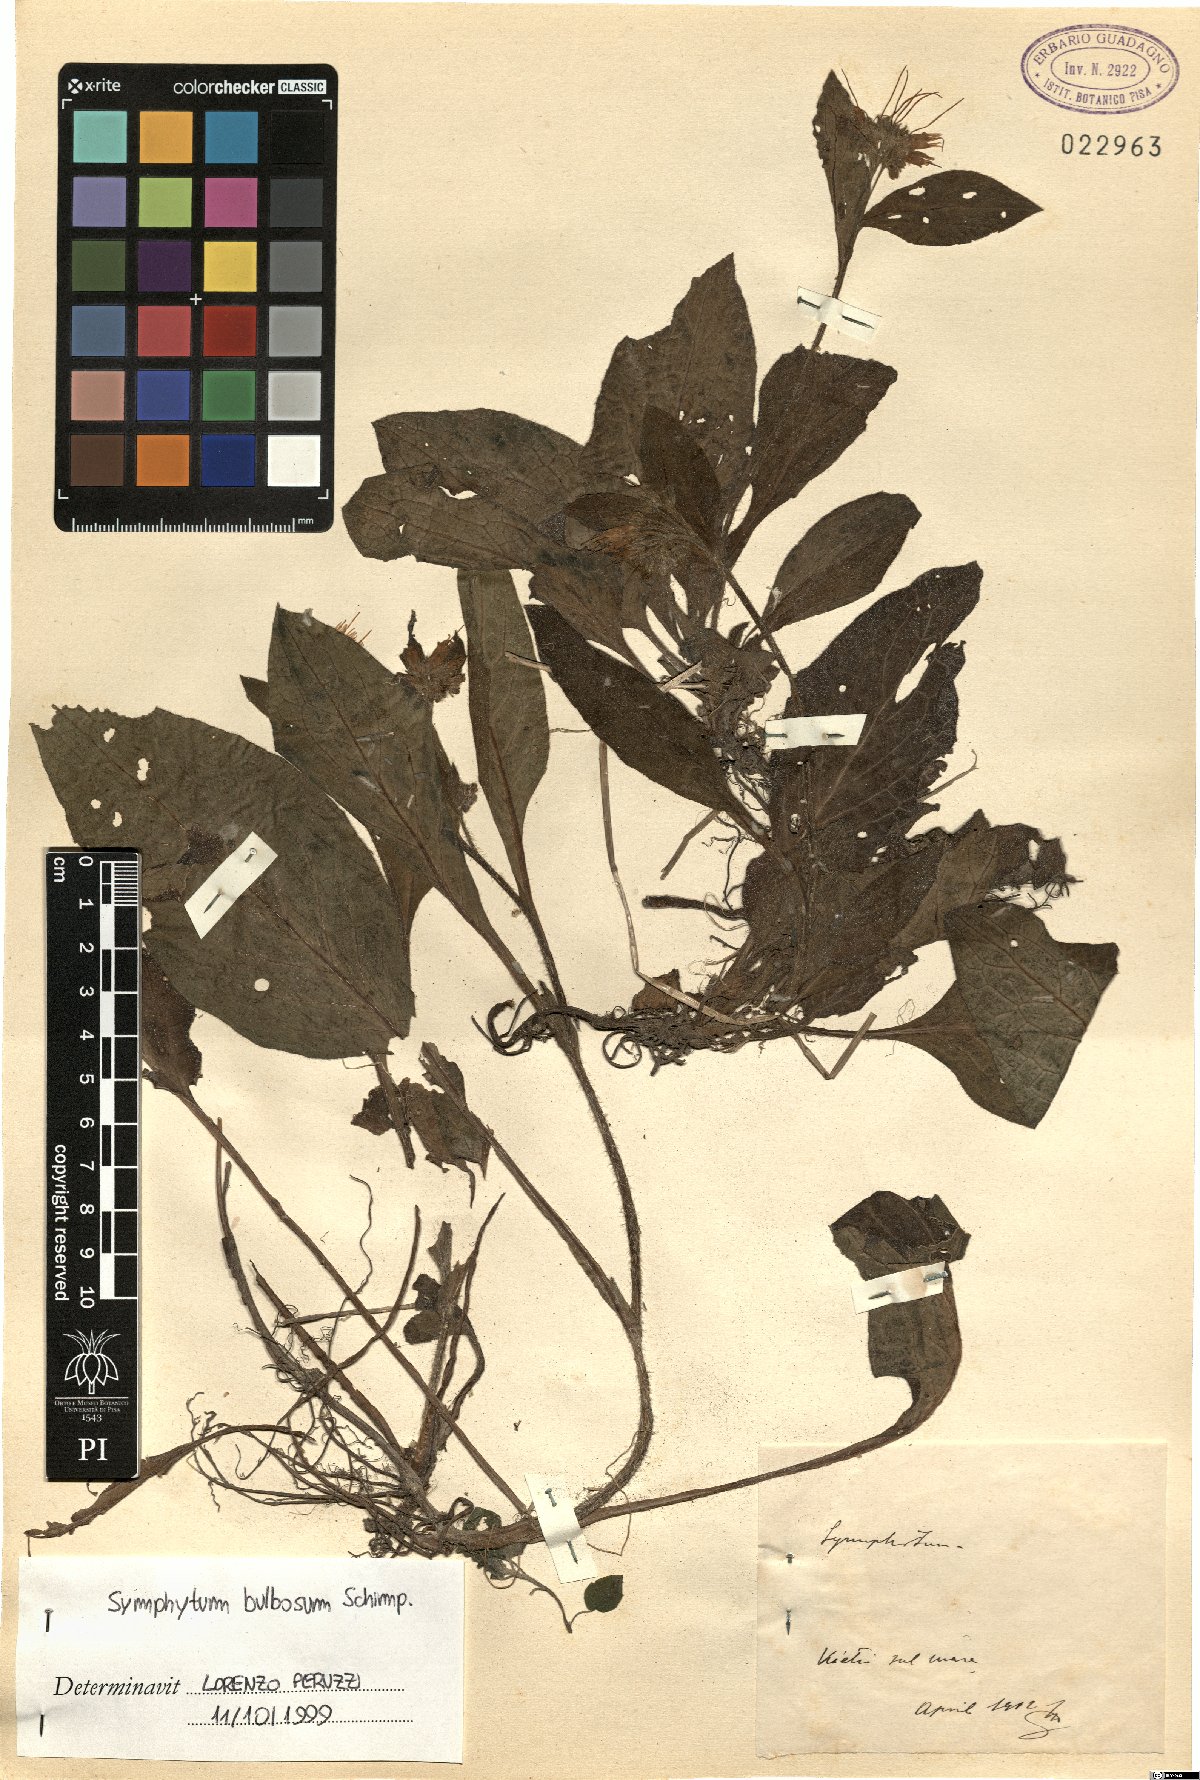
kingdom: Plantae
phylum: Tracheophyta
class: Magnoliopsida
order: Boraginales
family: Boraginaceae
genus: Symphytum
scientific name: Symphytum bulbosum
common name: Bulbous comfrey
